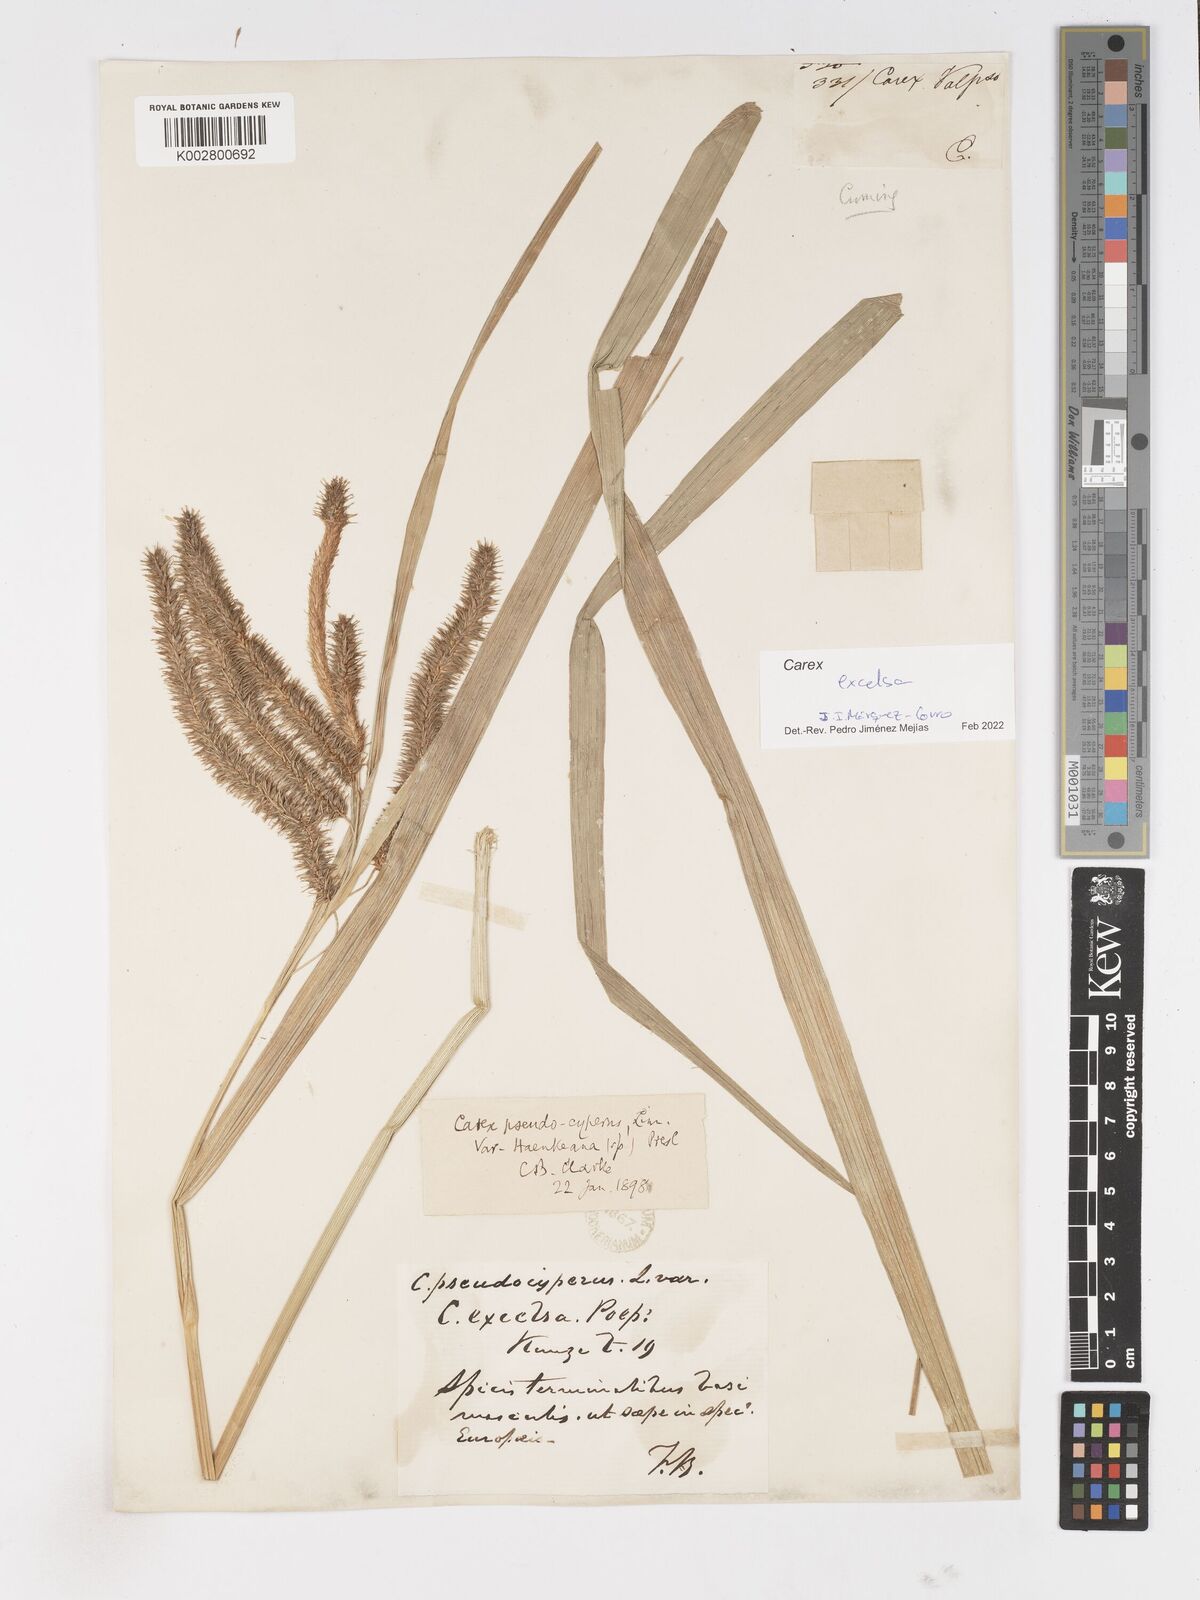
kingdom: Plantae
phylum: Tracheophyta
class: Liliopsida
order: Poales
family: Cyperaceae
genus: Carex
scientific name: Carex excelsa
